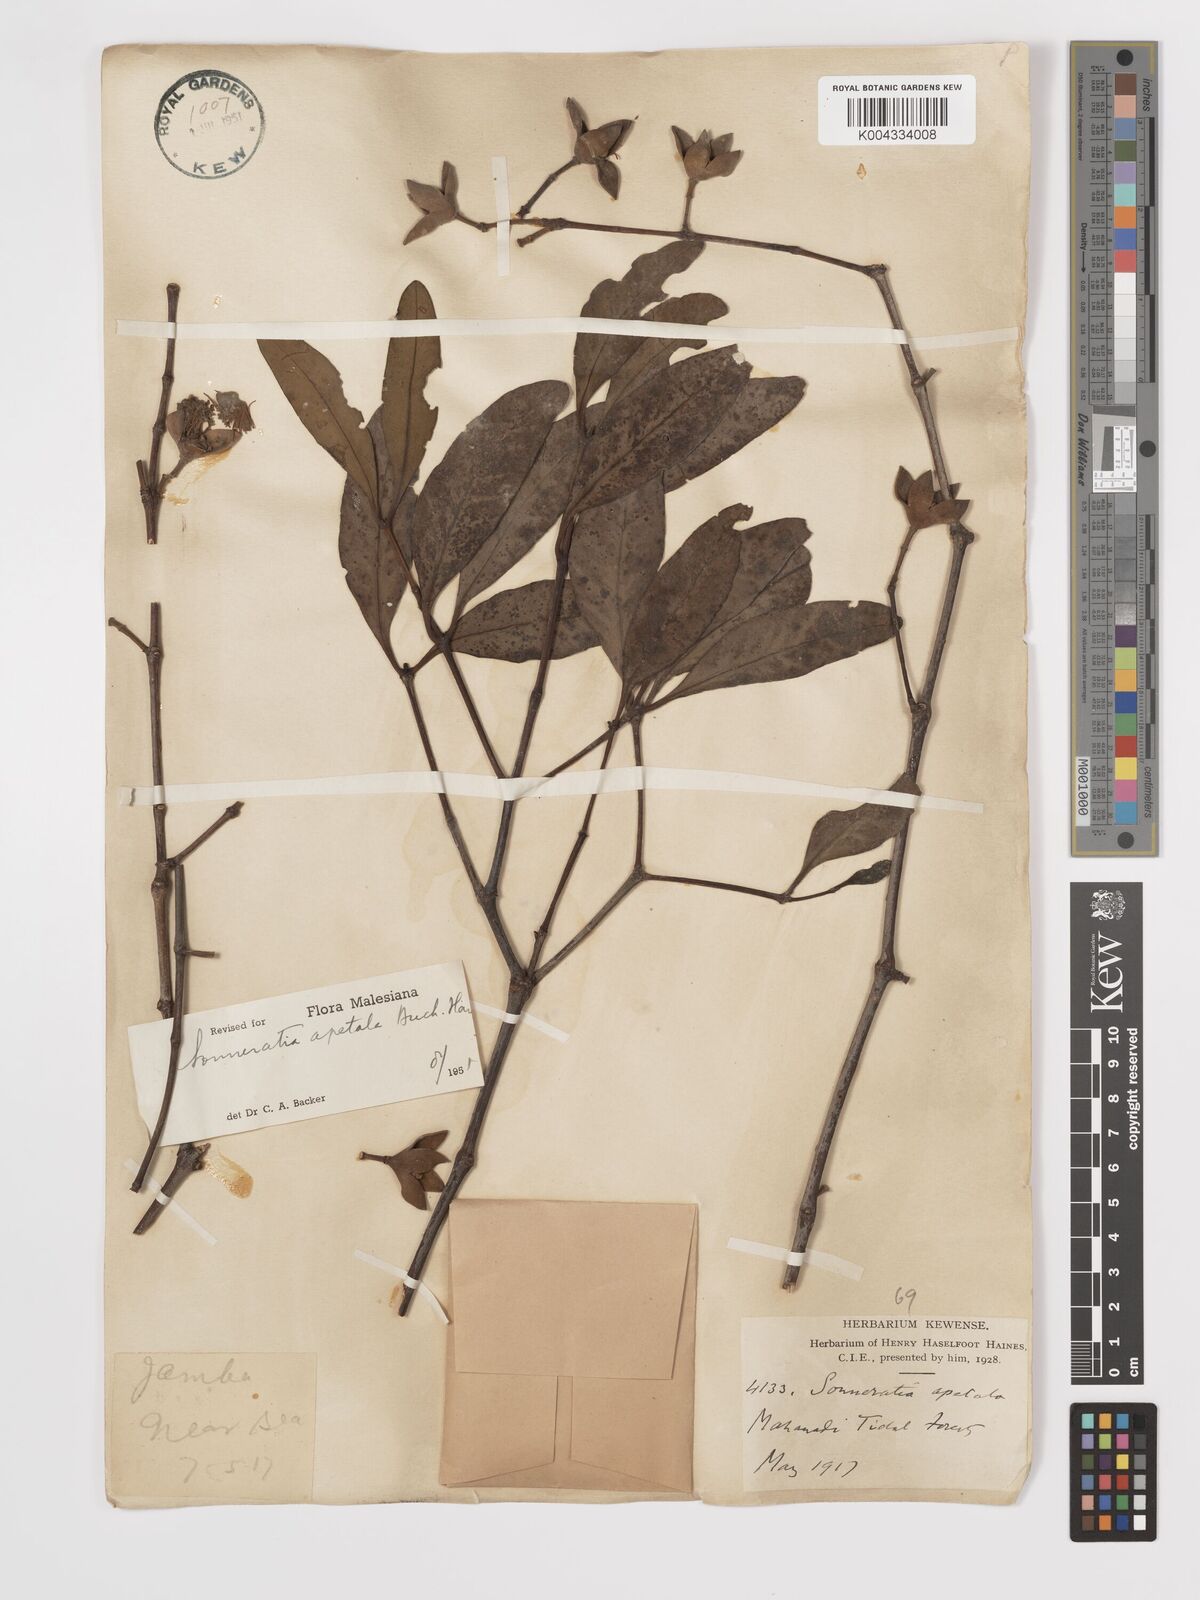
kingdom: Plantae
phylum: Tracheophyta
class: Magnoliopsida
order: Myrtales
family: Lythraceae
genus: Sonneratia
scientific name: Sonneratia apetala
